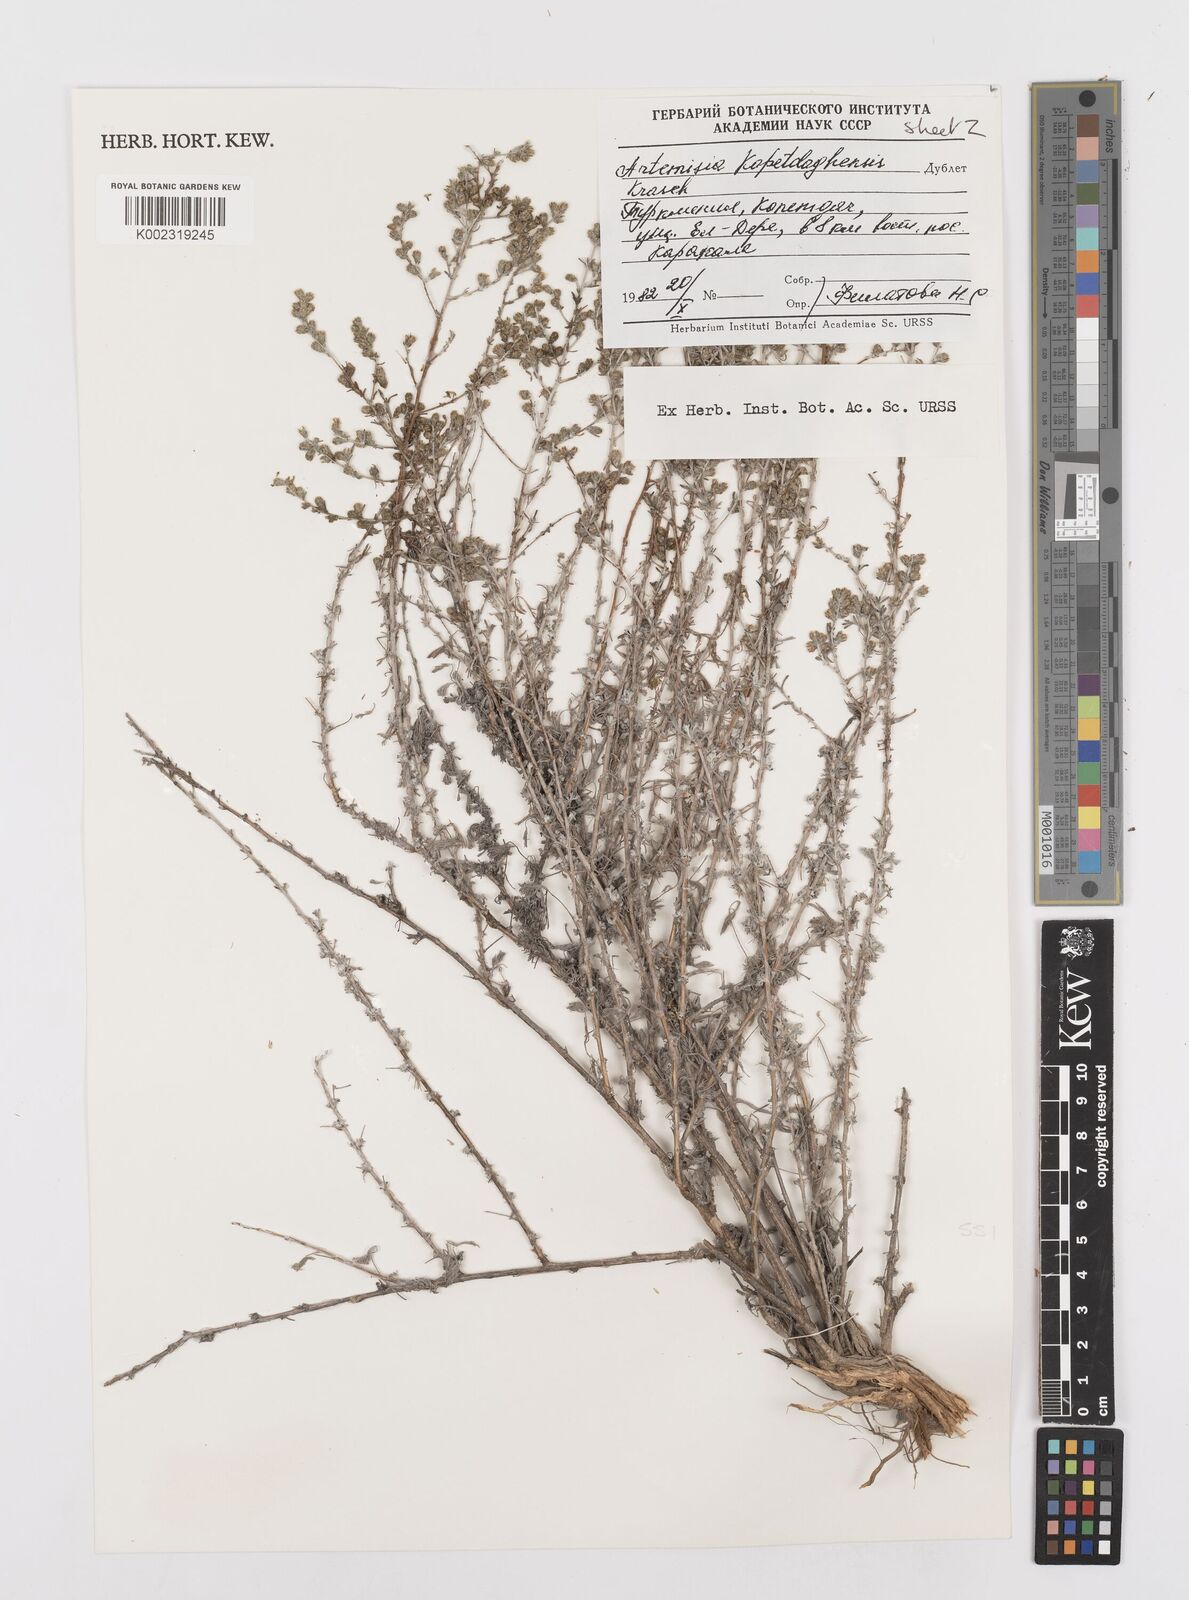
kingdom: Plantae
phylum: Tracheophyta
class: Magnoliopsida
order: Asterales
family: Asteraceae
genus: Turaniphytum
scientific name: Turaniphytum codringtonii
